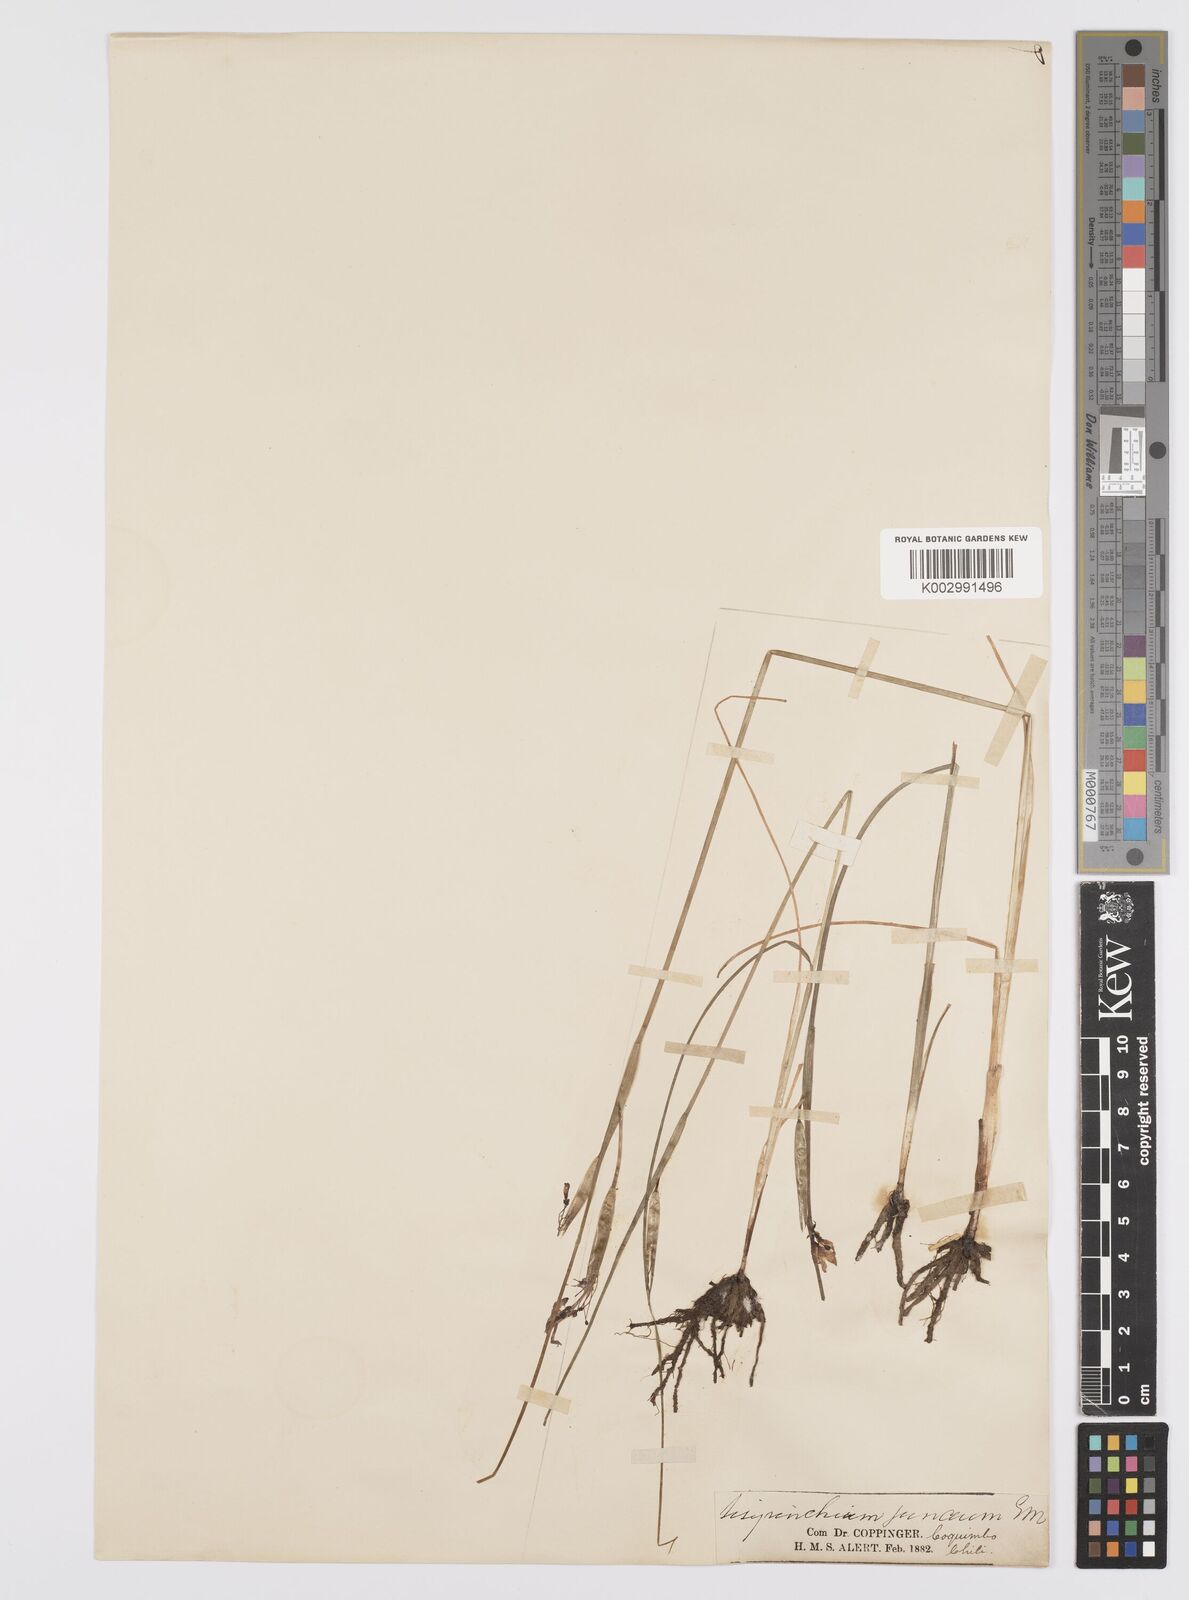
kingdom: Plantae
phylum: Tracheophyta
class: Liliopsida
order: Asparagales
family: Iridaceae
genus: Olsynium
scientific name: Olsynium junceum
